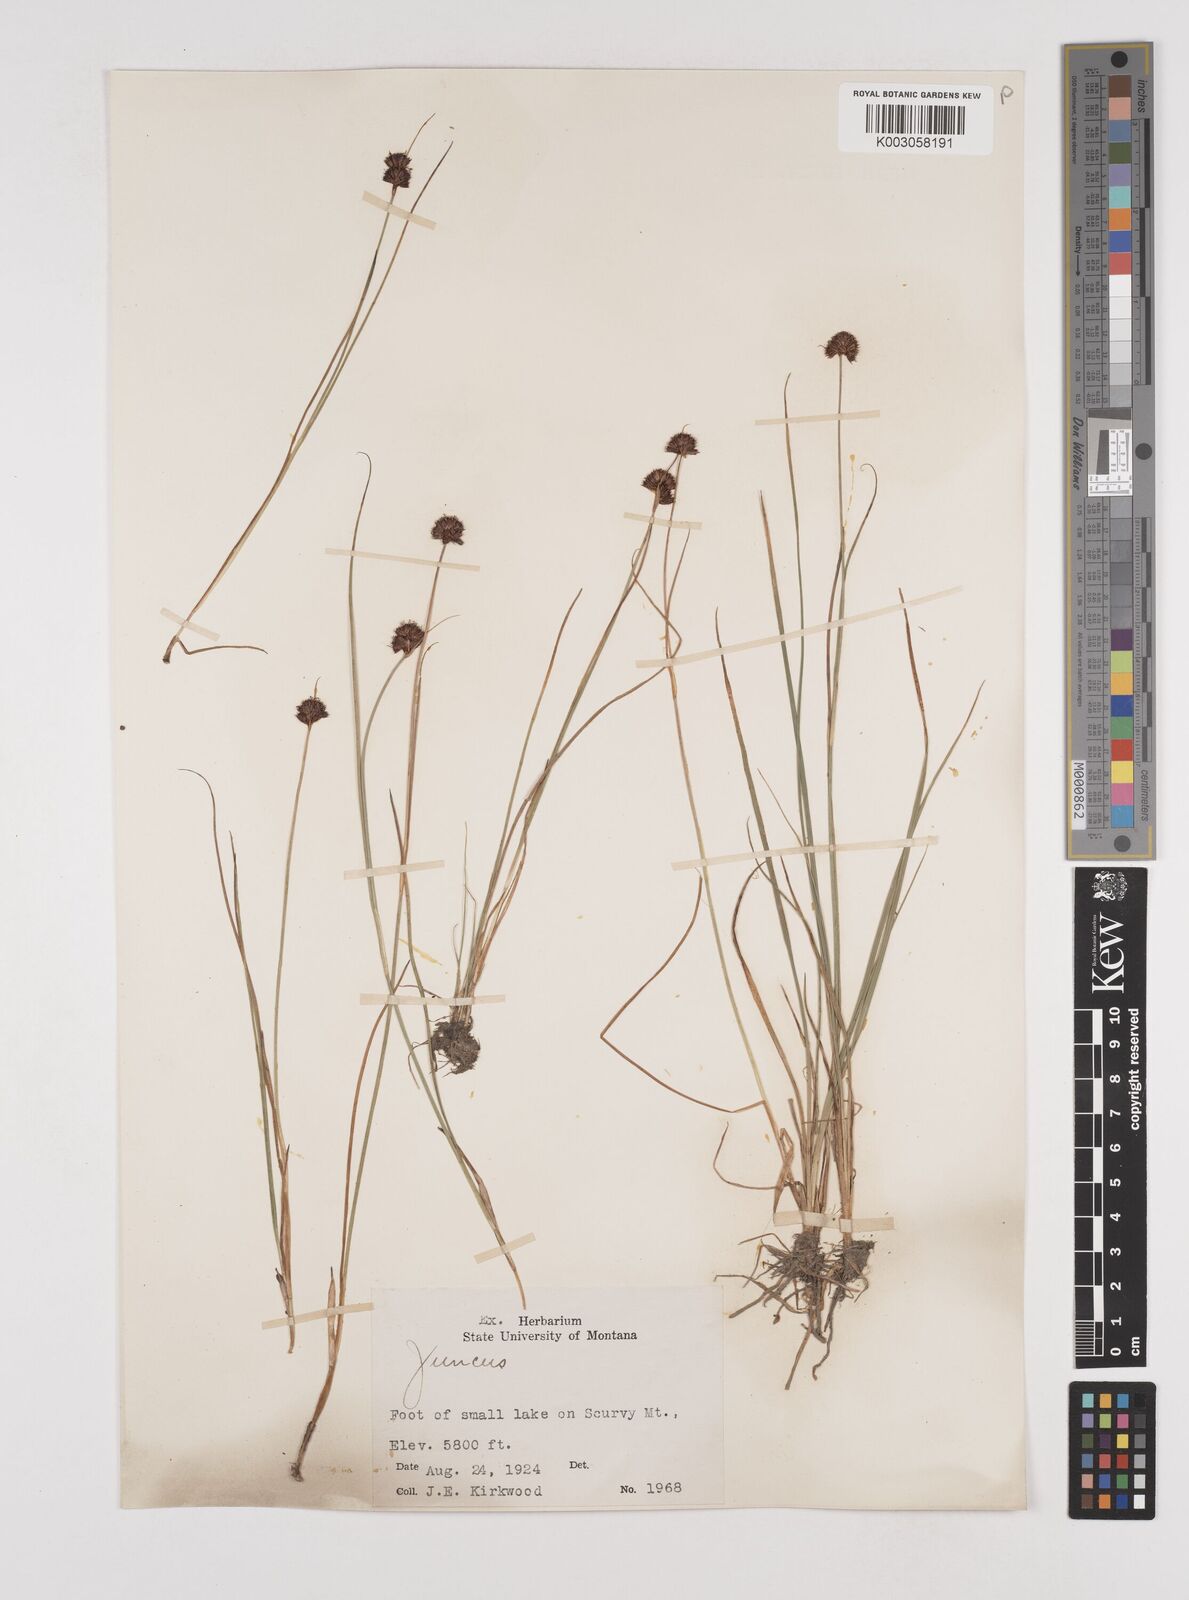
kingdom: Plantae
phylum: Tracheophyta
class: Liliopsida
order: Poales
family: Juncaceae
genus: Juncus
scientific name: Juncus
